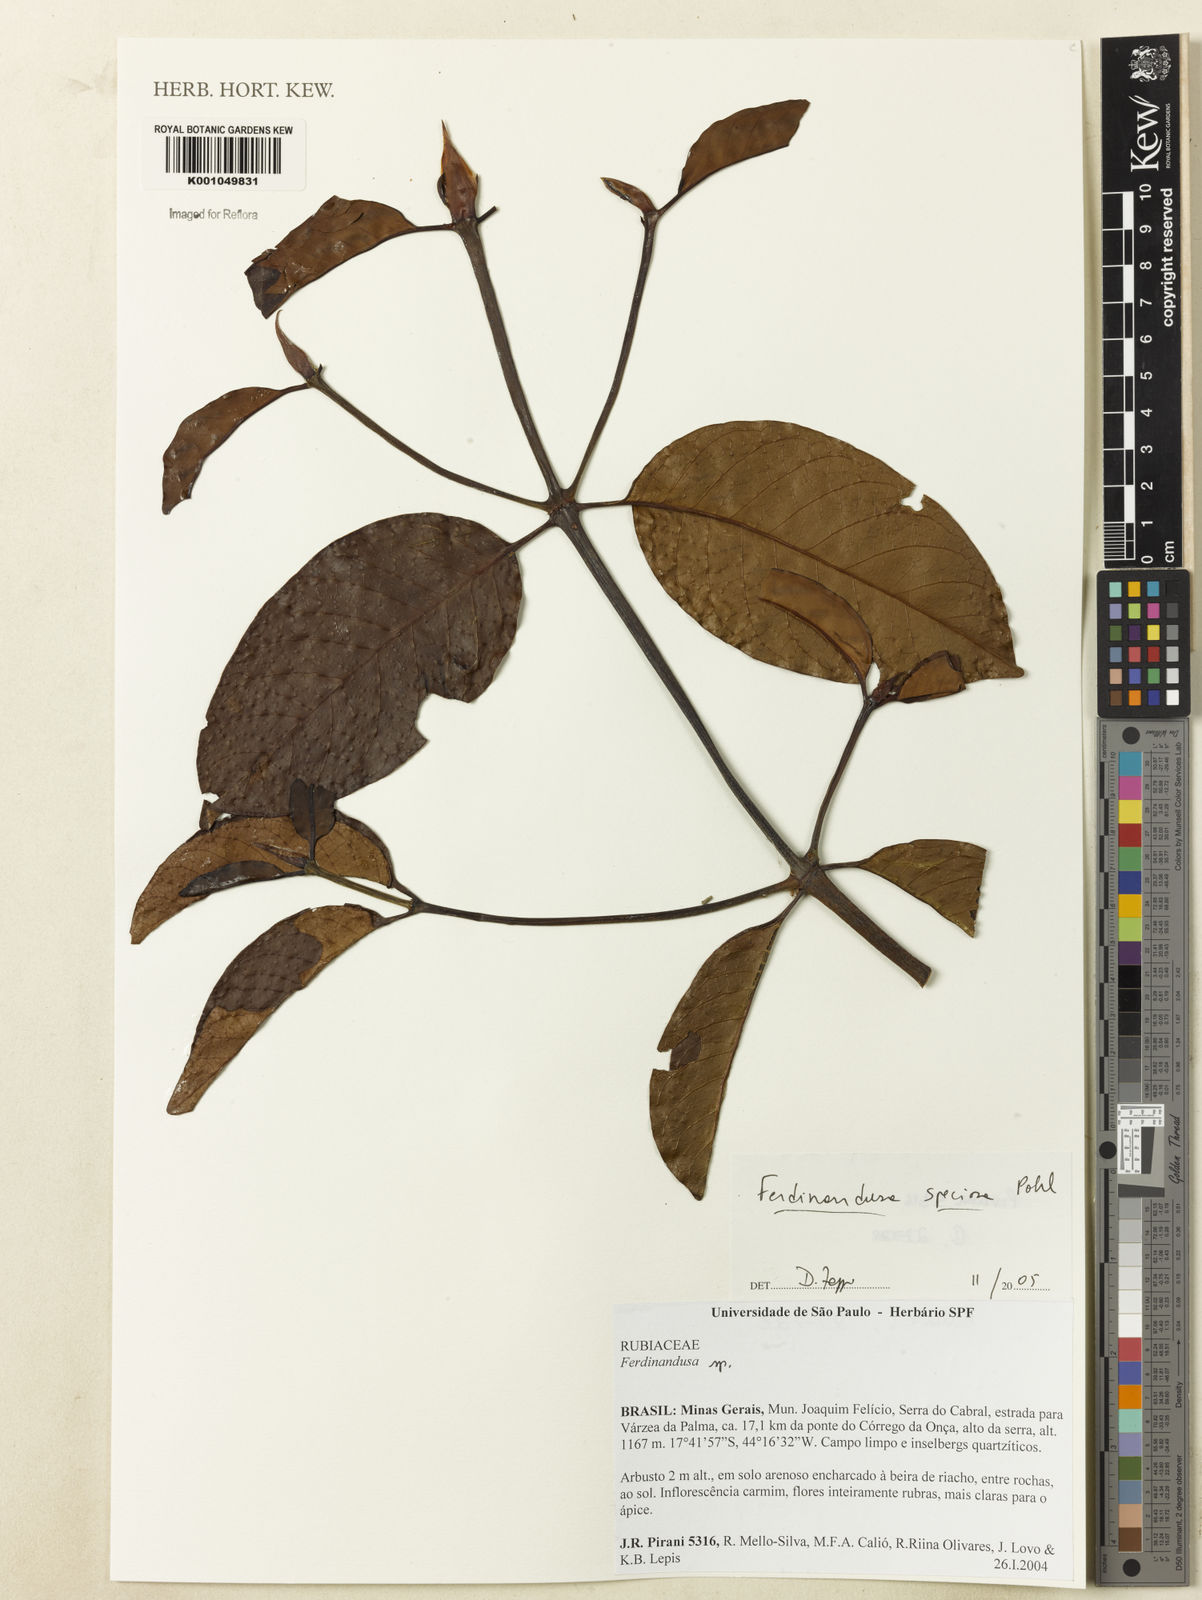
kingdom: Plantae
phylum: Tracheophyta
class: Magnoliopsida
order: Gentianales
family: Rubiaceae
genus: Ferdinandusa
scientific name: Ferdinandusa speciosa
